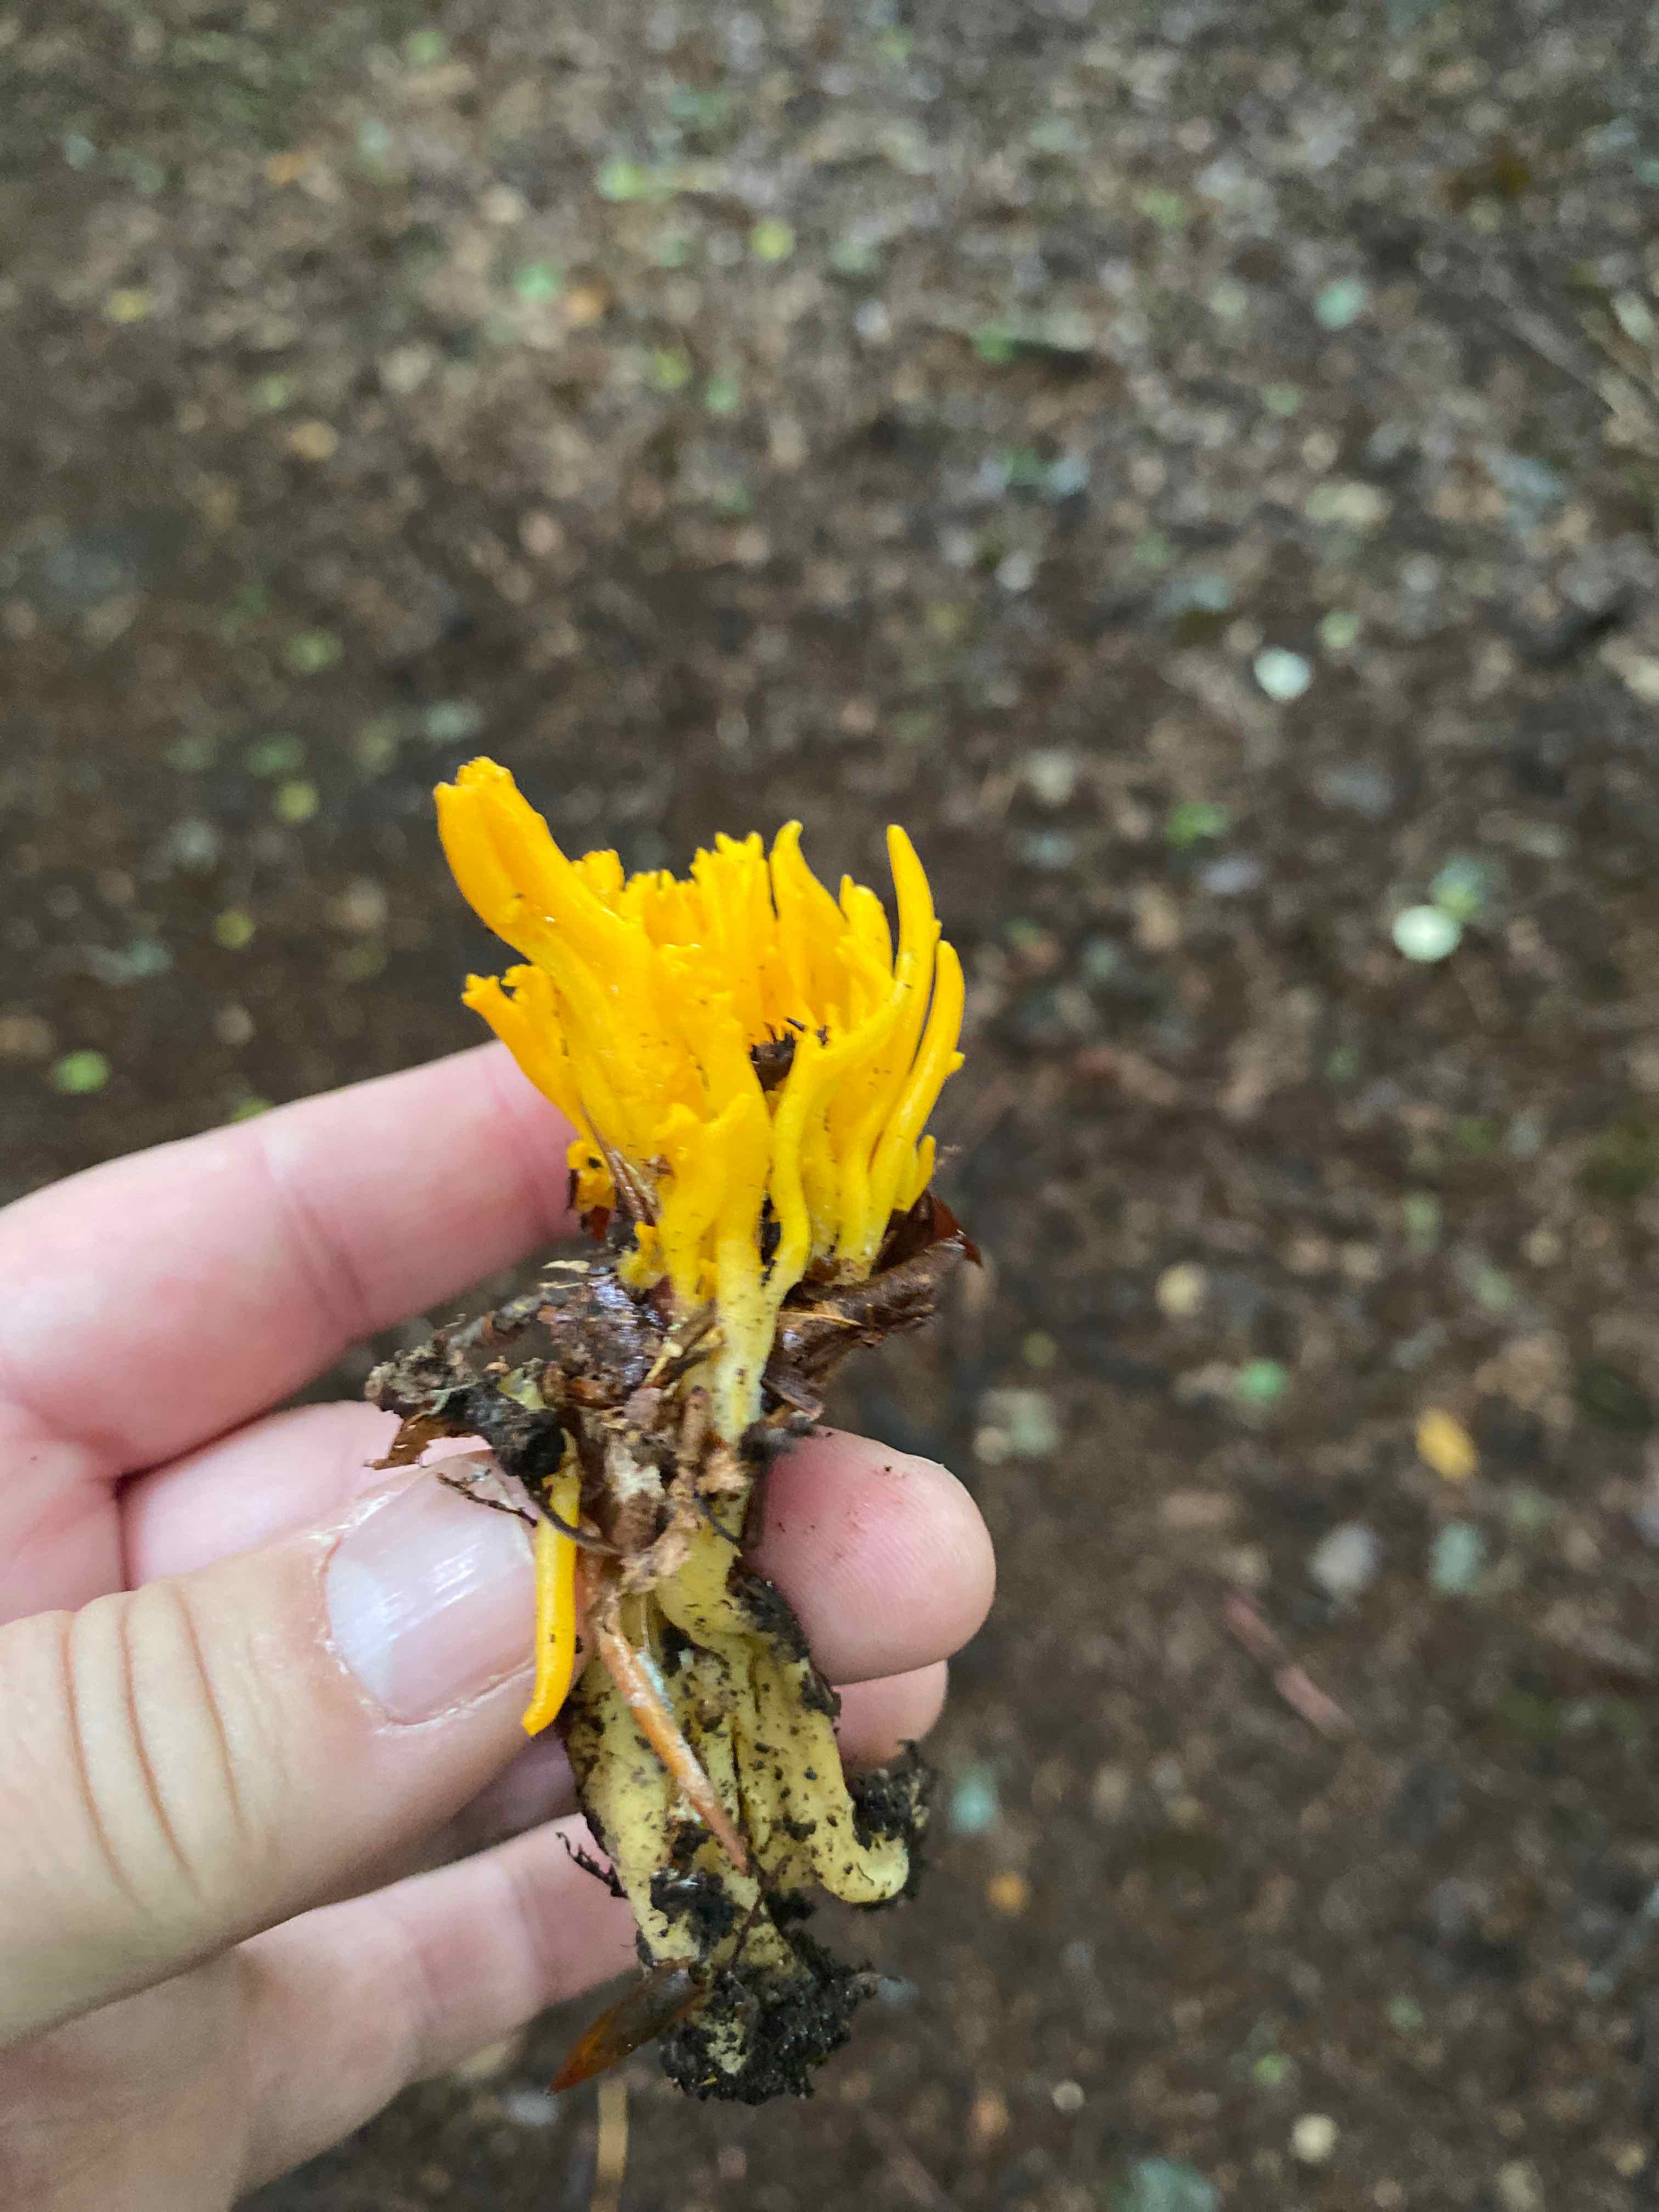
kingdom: Fungi
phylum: Basidiomycota
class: Dacrymycetes
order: Dacrymycetales
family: Dacrymycetaceae
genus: Calocera
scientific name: Calocera viscosa
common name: almindelig guldgaffel
